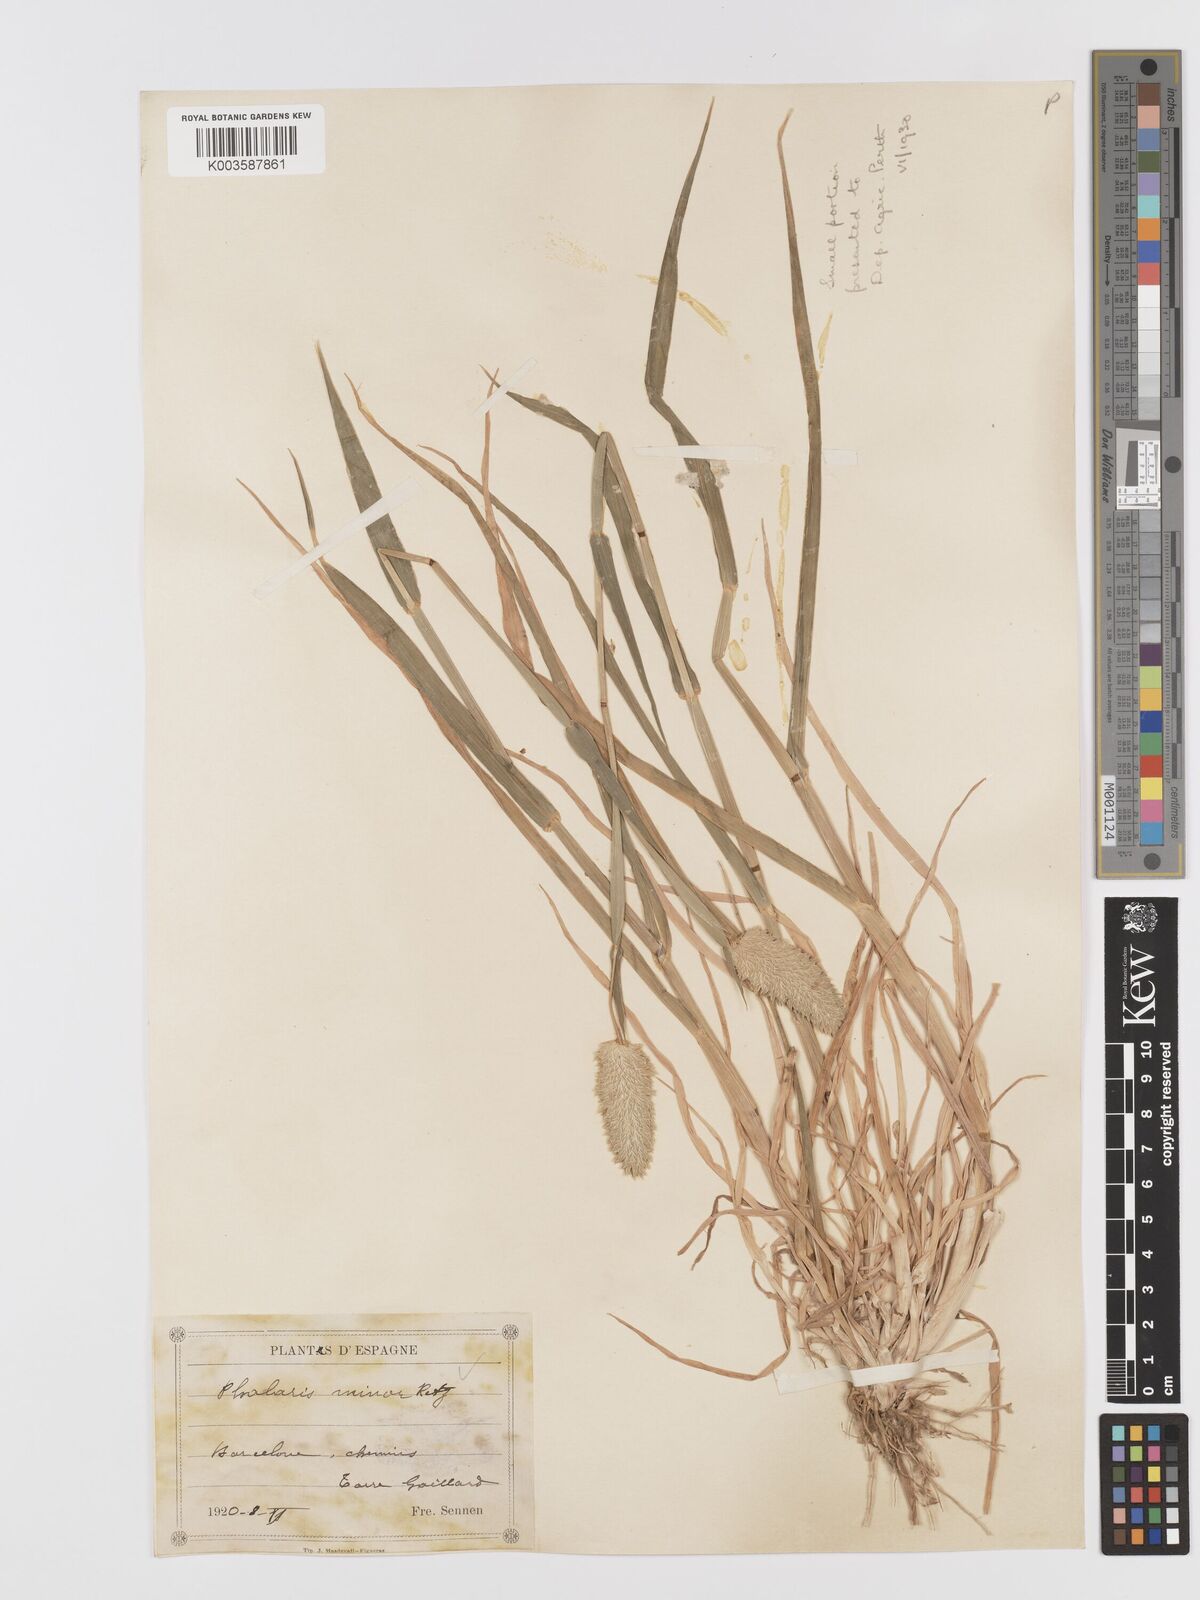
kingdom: Plantae
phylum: Tracheophyta
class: Liliopsida
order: Poales
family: Poaceae
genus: Phalaris
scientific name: Phalaris minor
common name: Littleseed canarygrass
